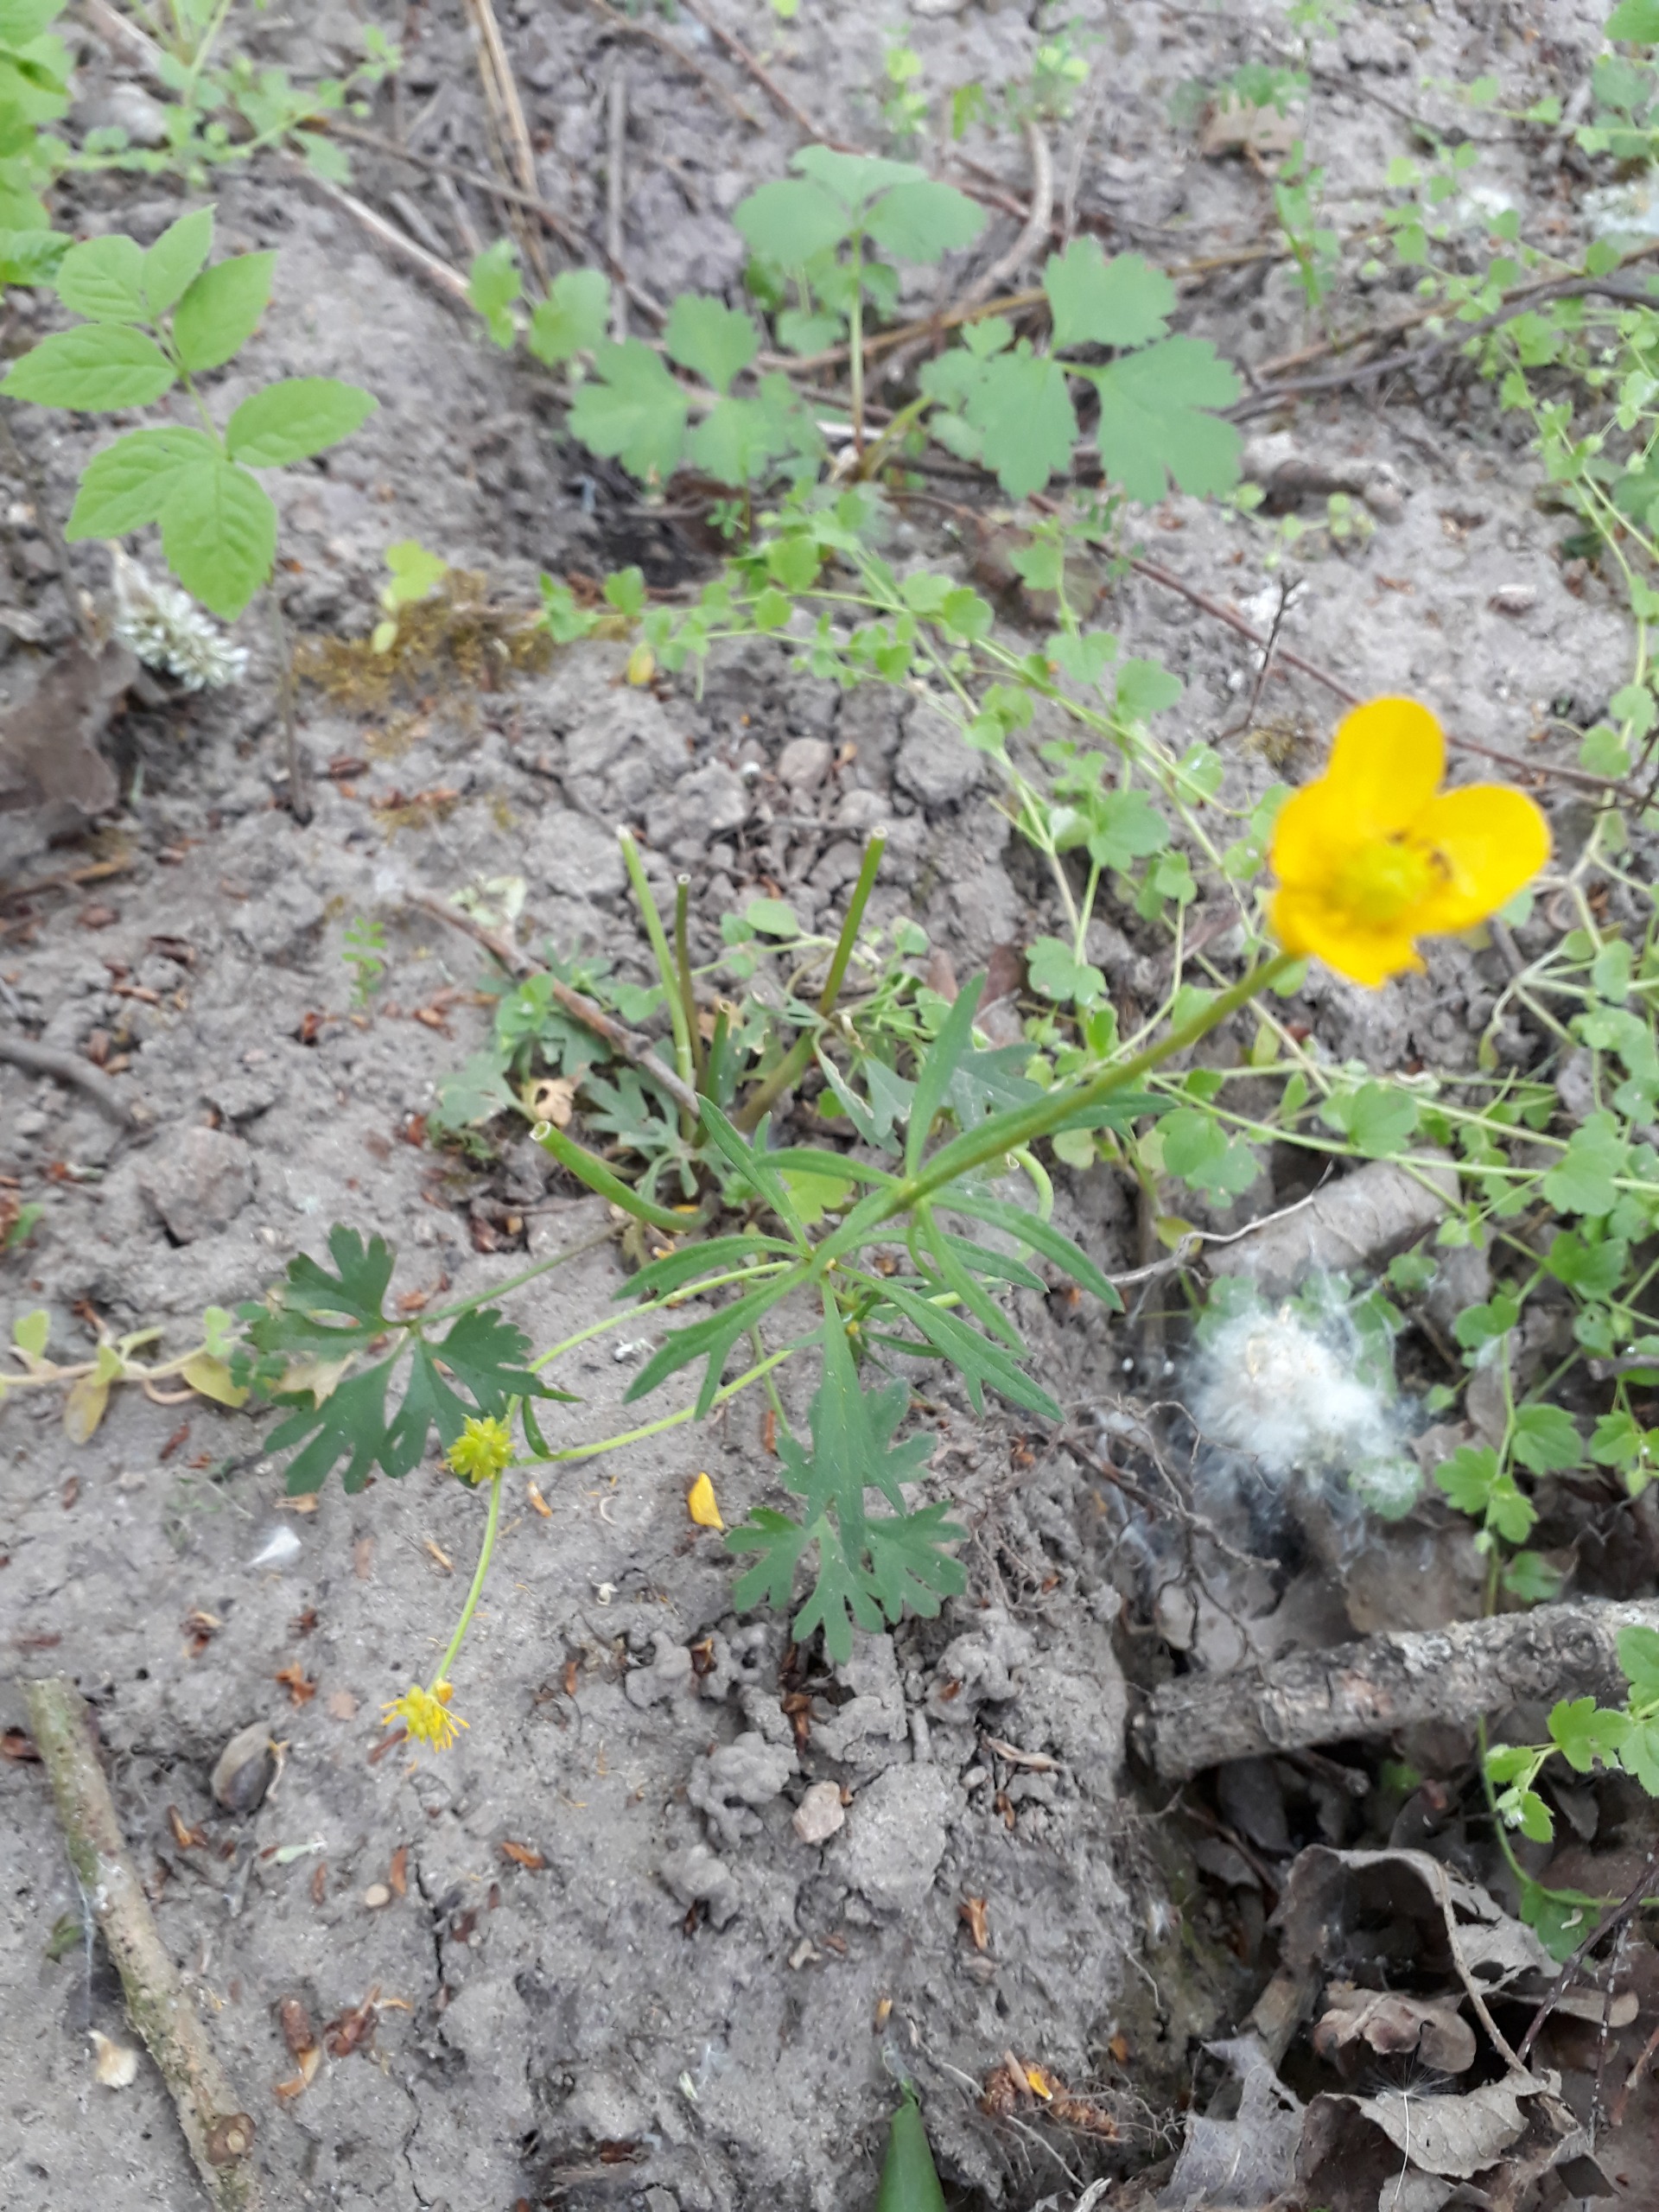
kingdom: Plantae
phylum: Tracheophyta
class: Magnoliopsida
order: Ranunculales
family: Ranunculaceae
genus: Ranunculus
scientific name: Ranunculus auricomus
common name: Nyrebladet ranunkel
